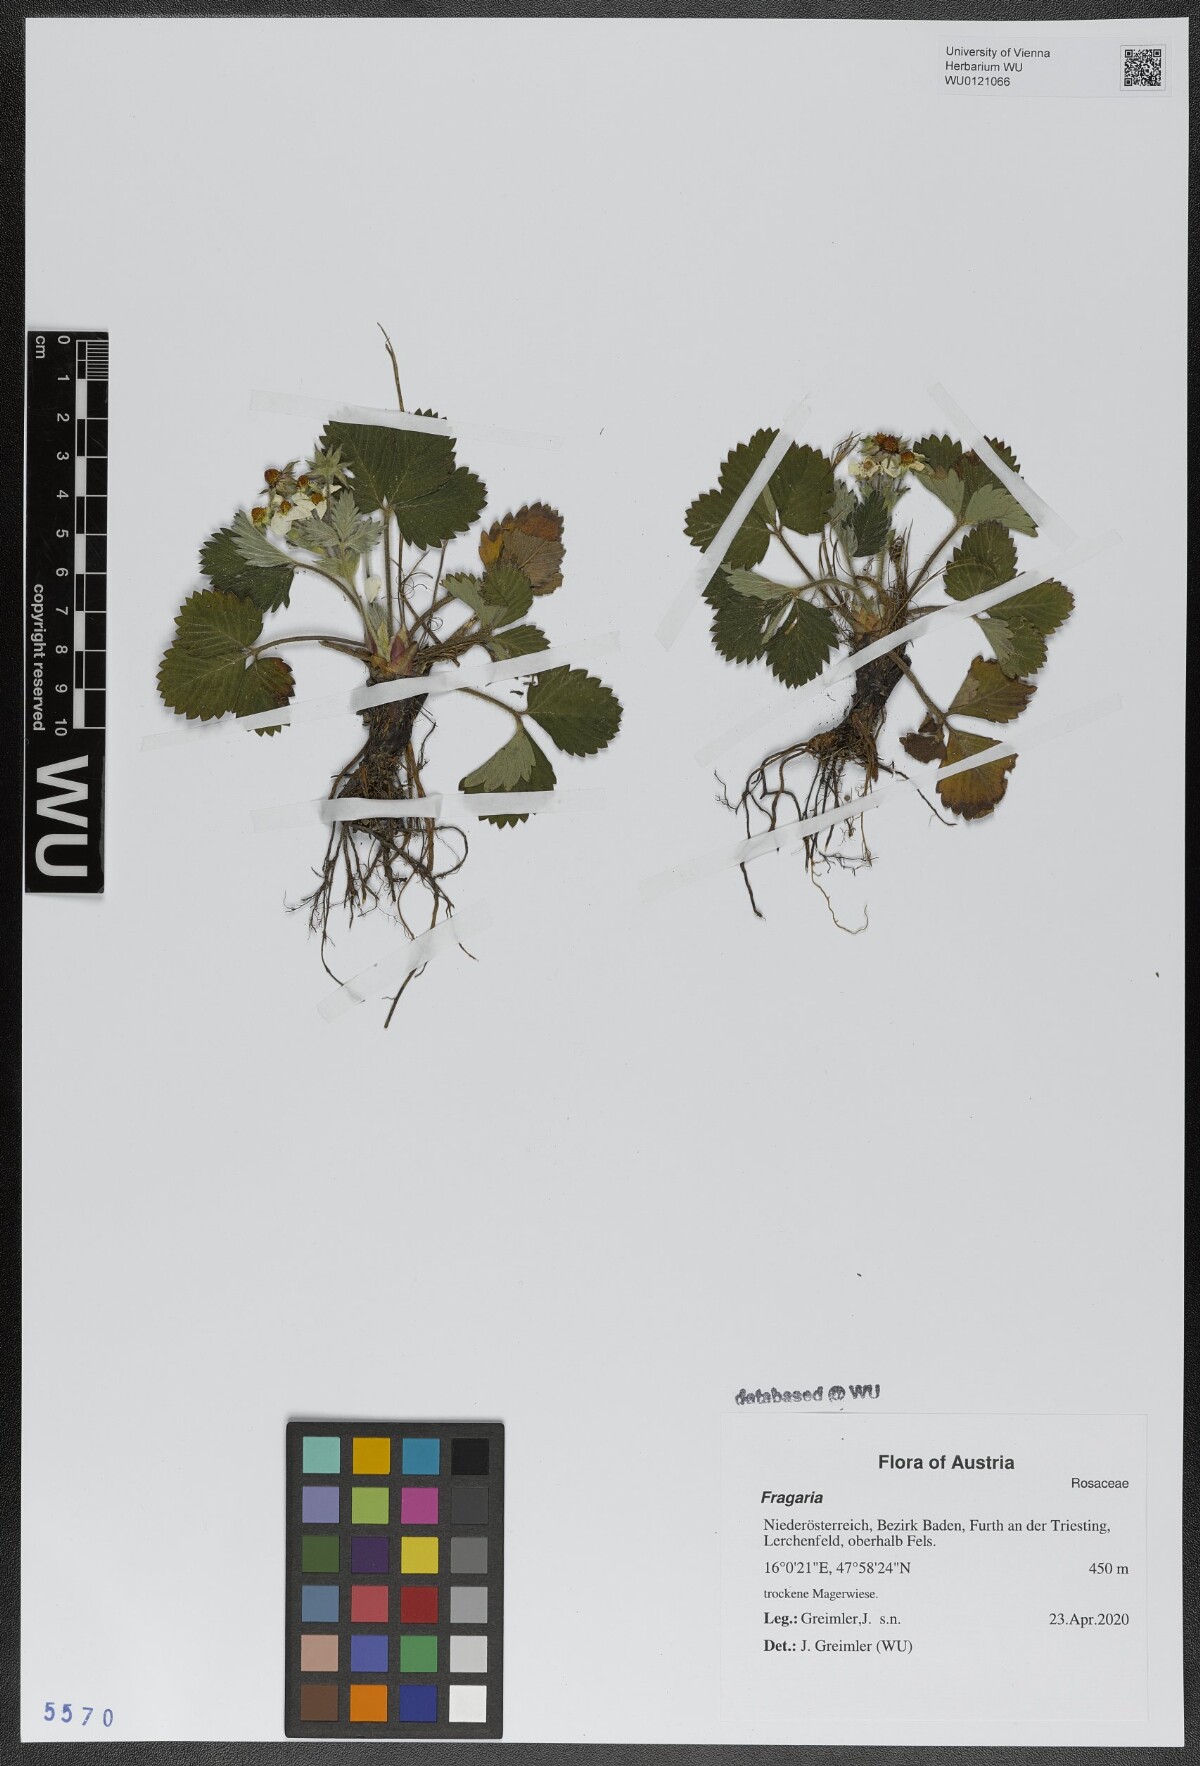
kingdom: Plantae
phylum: Tracheophyta
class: Magnoliopsida
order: Rosales
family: Rosaceae
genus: Fragaria
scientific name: Fragaria
